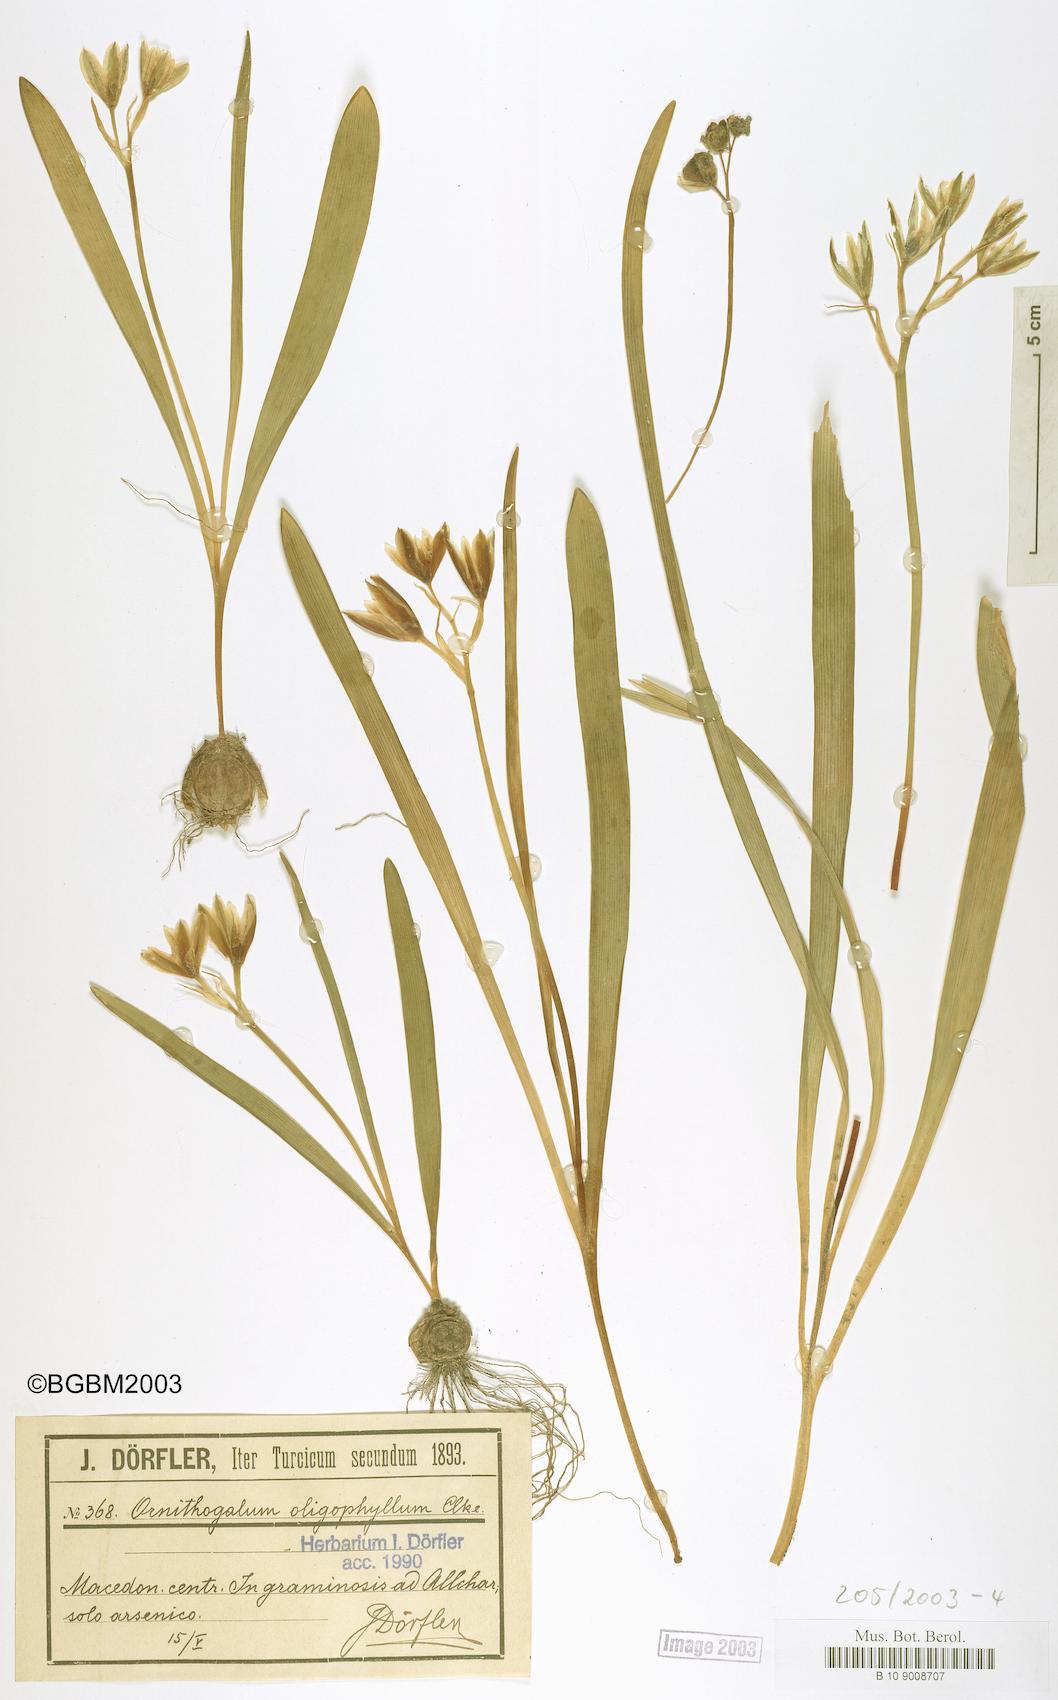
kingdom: Plantae
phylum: Tracheophyta
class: Liliopsida
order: Asparagales
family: Asparagaceae
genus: Ornithogalum
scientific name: Ornithogalum oligophyllum
